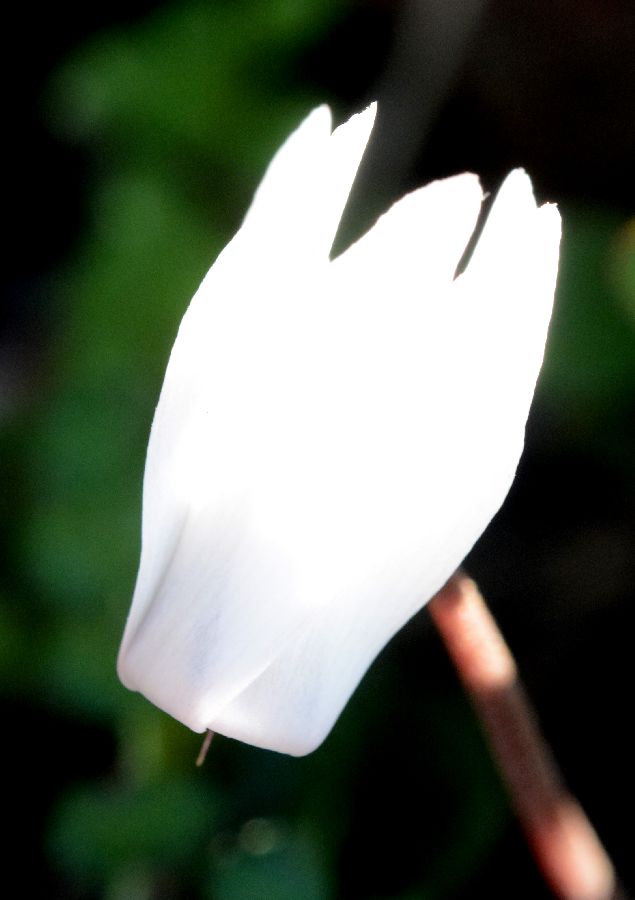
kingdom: Plantae
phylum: Tracheophyta
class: Magnoliopsida
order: Ericales
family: Primulaceae
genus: Cyclamen
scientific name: Cyclamen creticum
